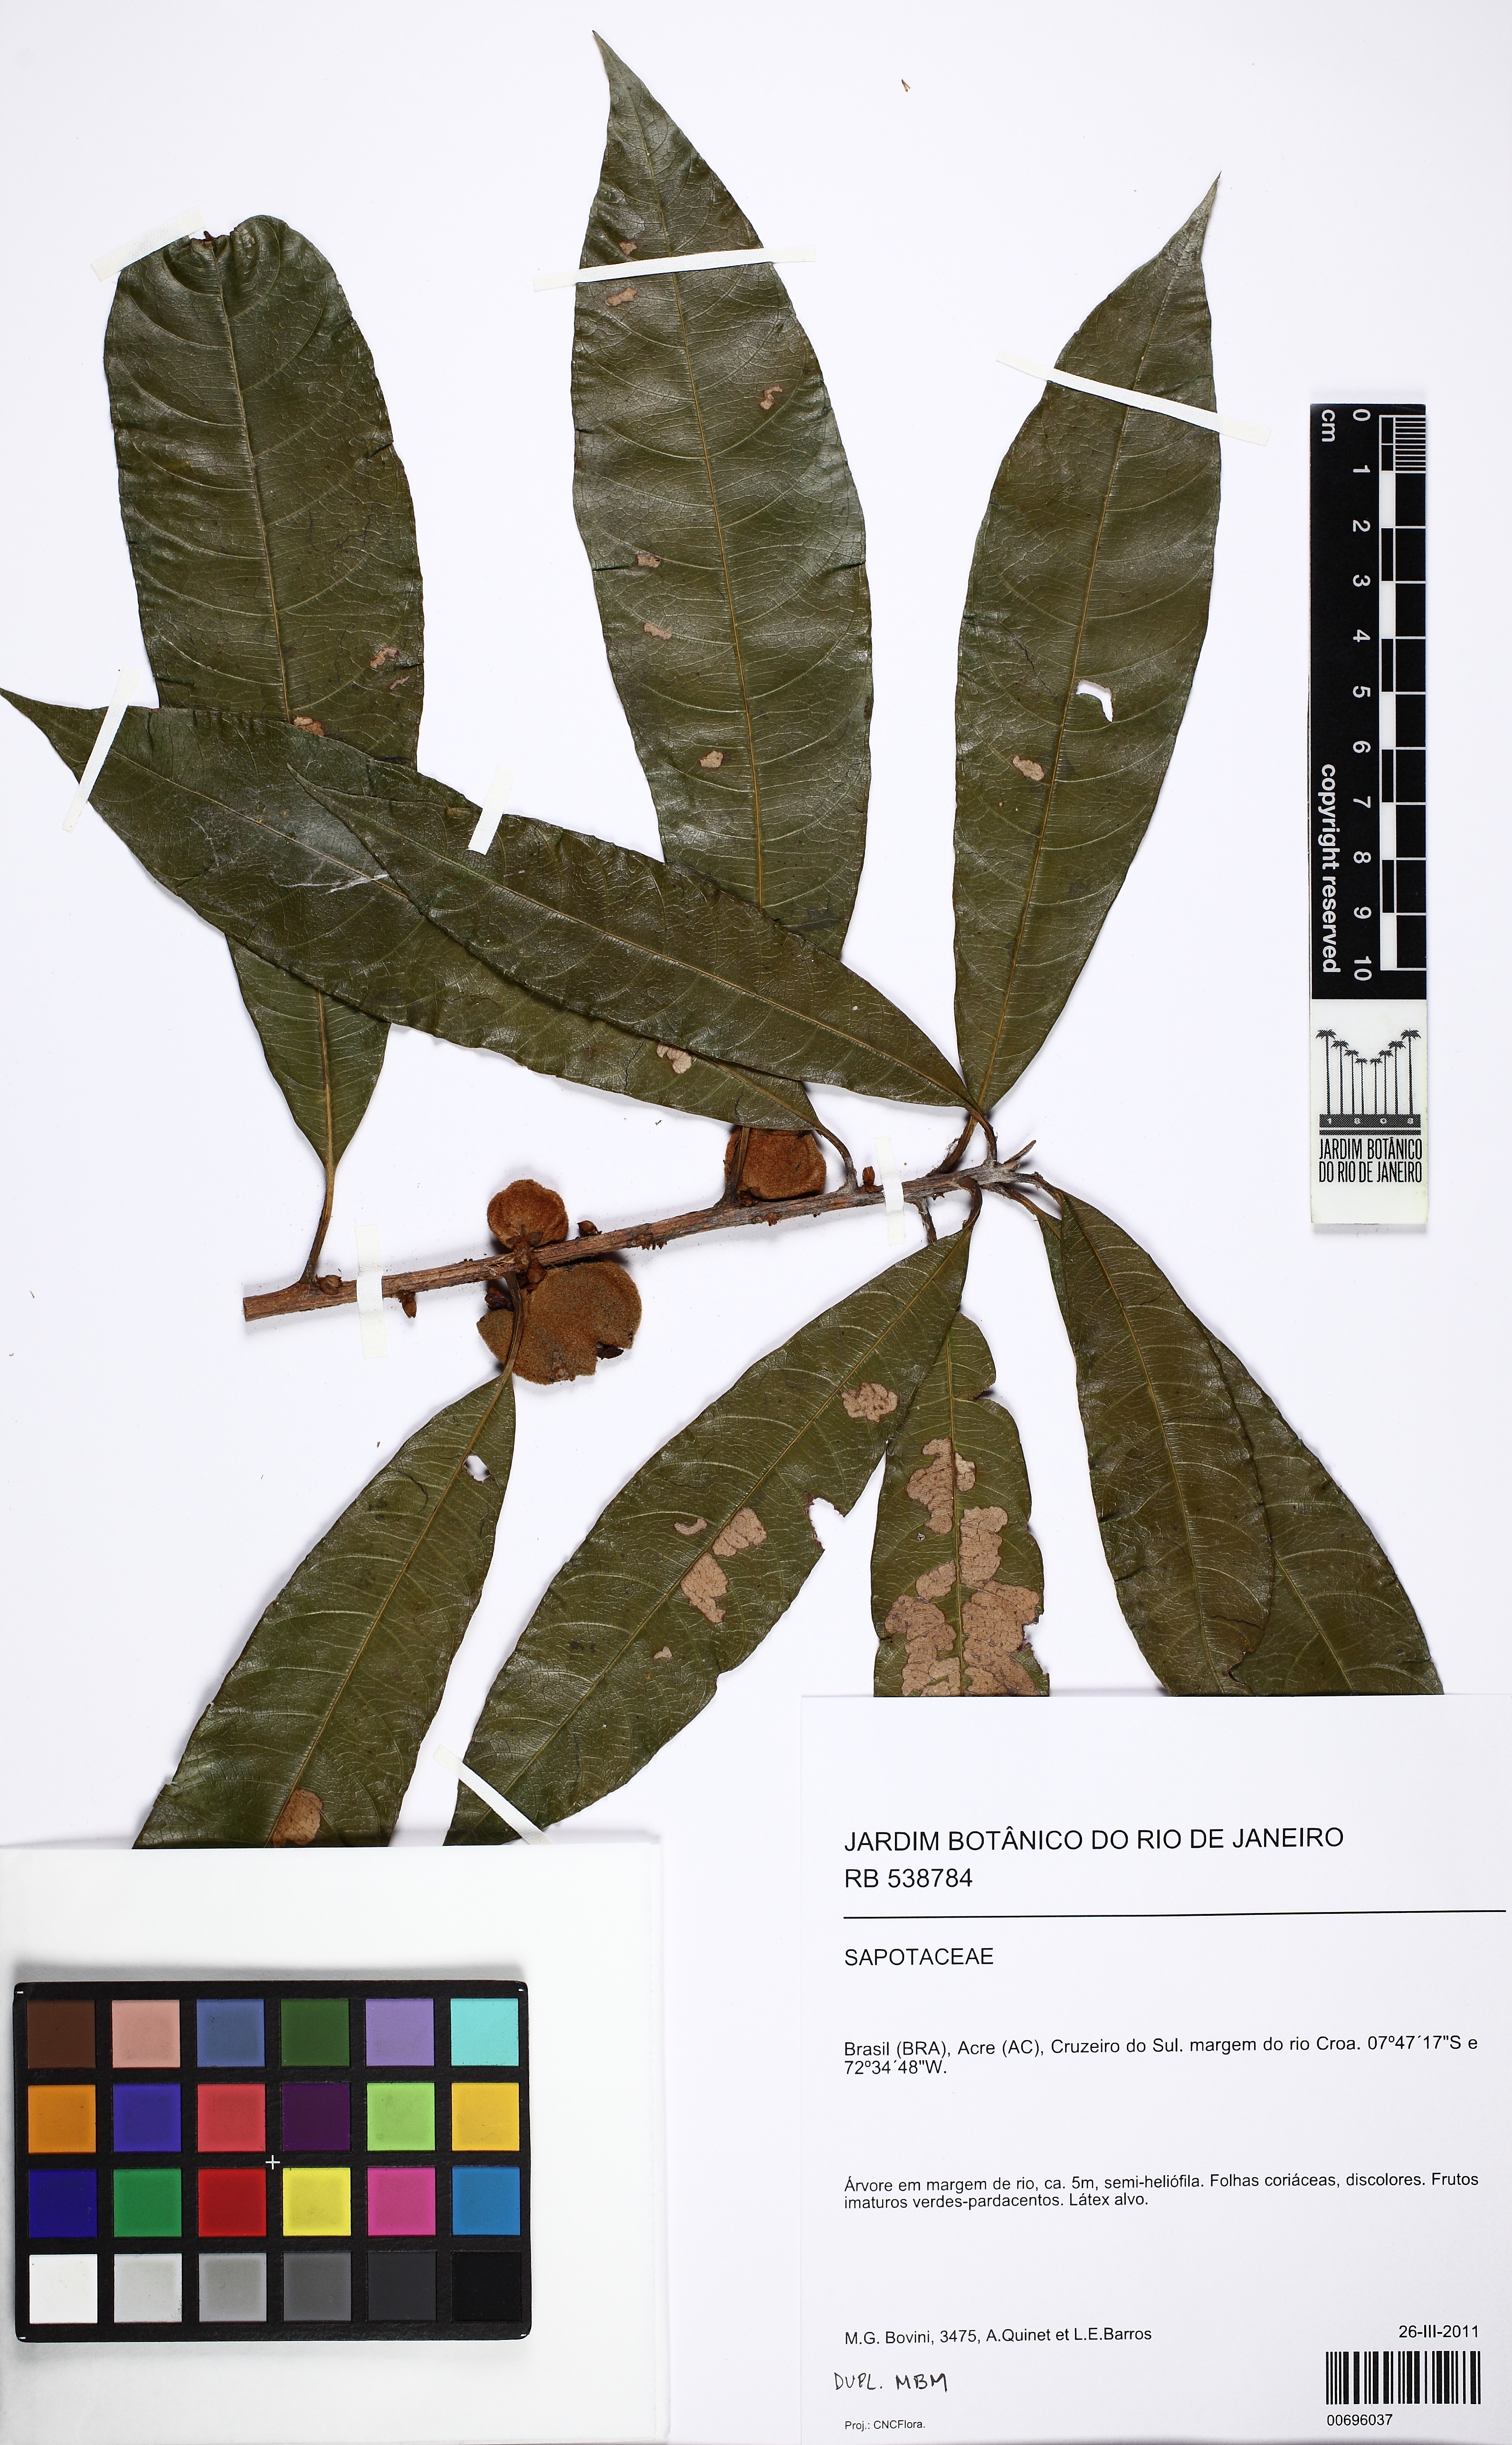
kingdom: Plantae
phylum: Tracheophyta
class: Magnoliopsida
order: Ericales
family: Sapotaceae
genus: Ecclinusa
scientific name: Ecclinusa
